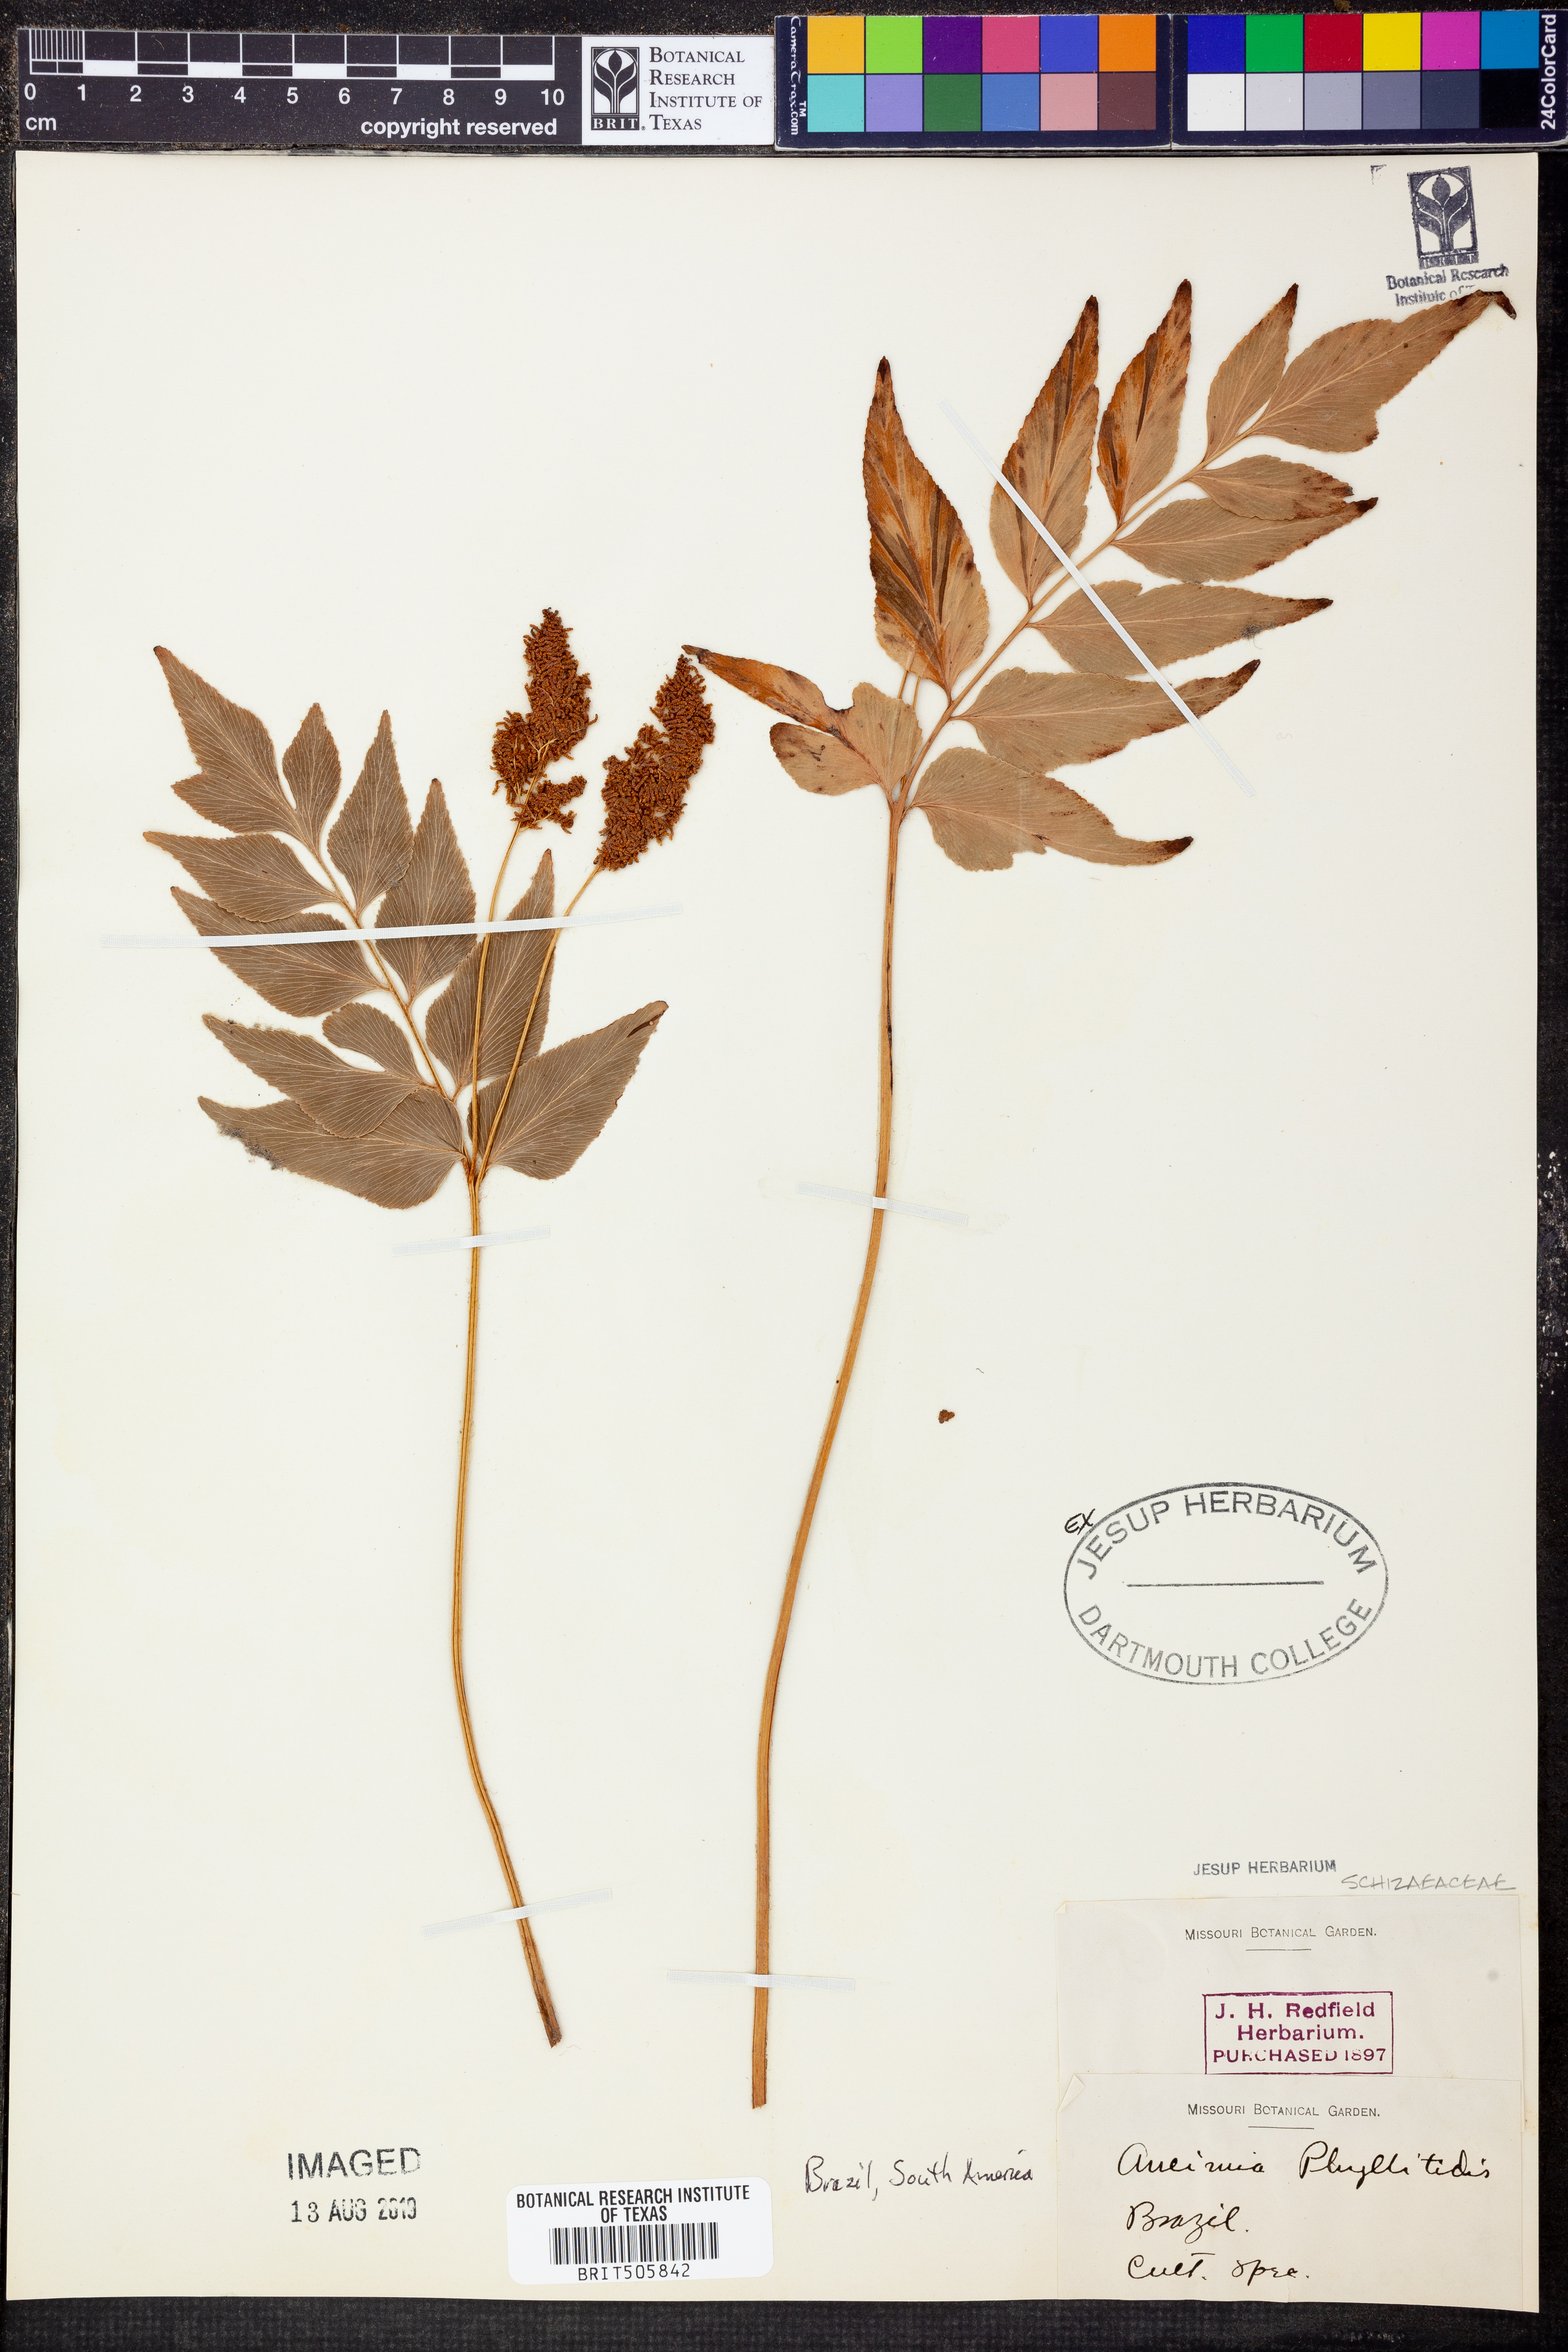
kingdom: Plantae
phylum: Tracheophyta
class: Polypodiopsida
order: Schizaeales
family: Anemiaceae
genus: Anemia
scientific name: Anemia phyllitidis
